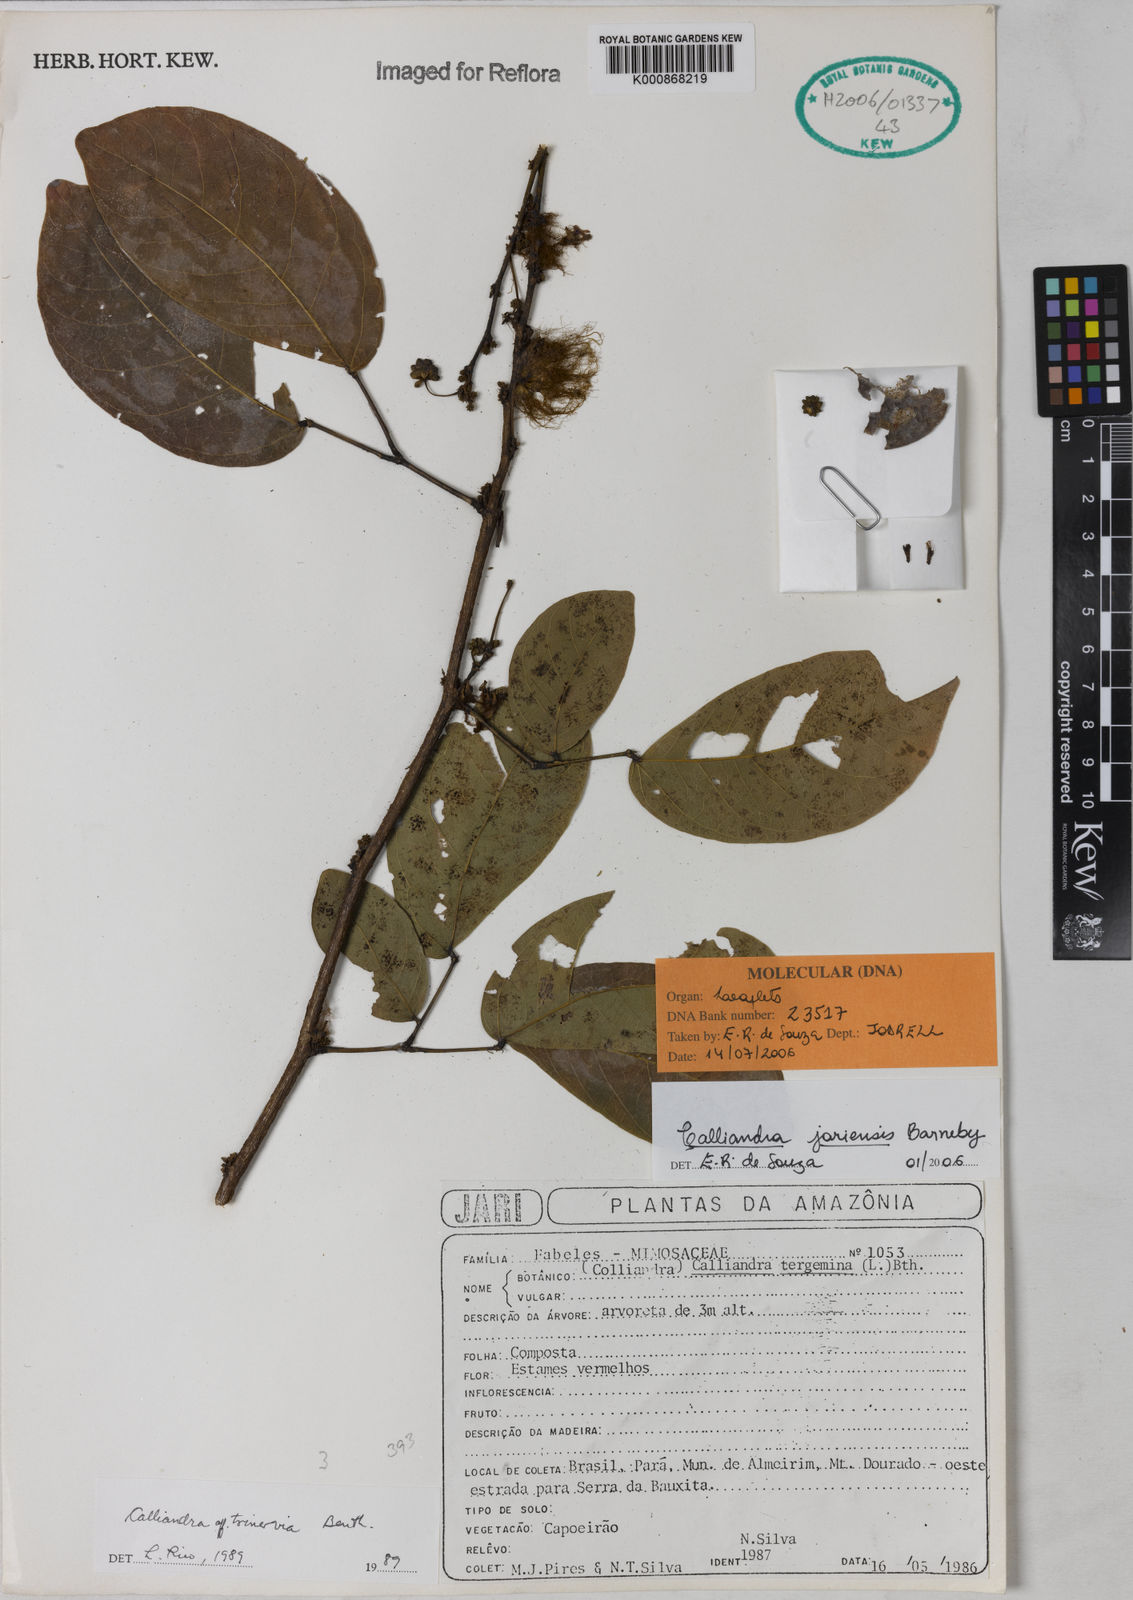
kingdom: Plantae
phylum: Tracheophyta
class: Magnoliopsida
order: Fabales
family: Fabaceae
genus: Calliandra
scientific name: Calliandra jariensis
